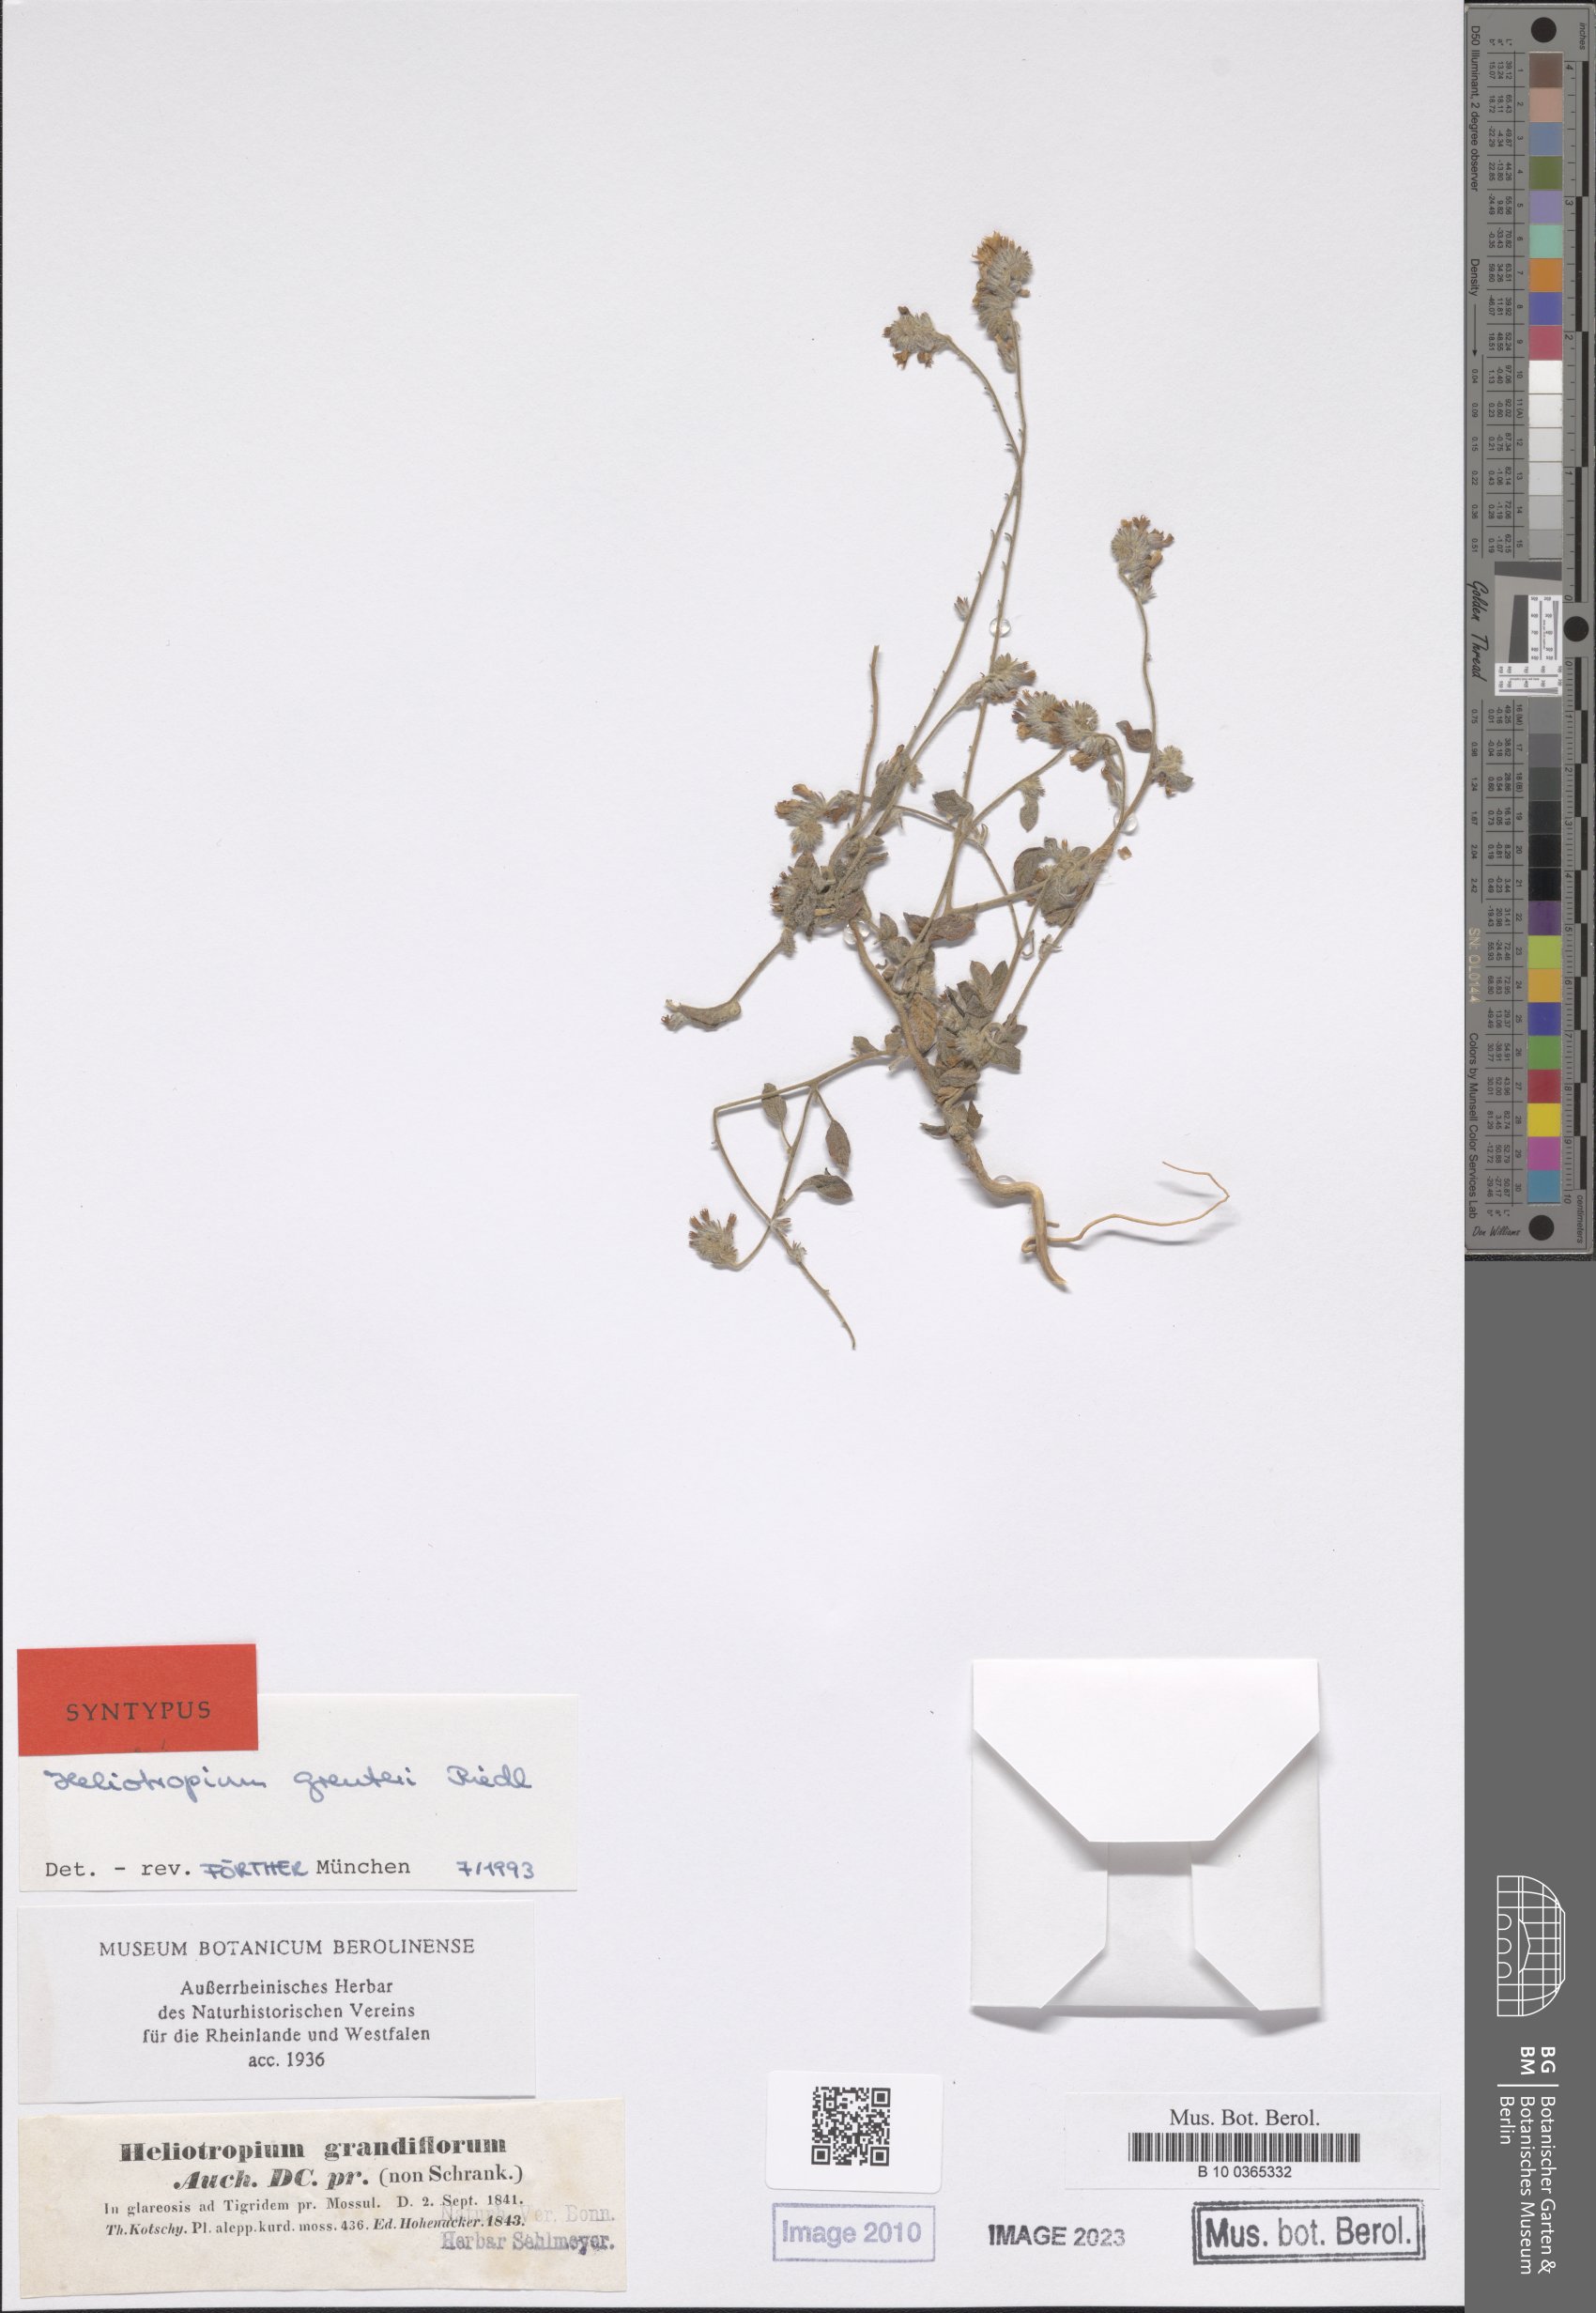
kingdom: Plantae
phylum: Tracheophyta
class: Magnoliopsida
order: Boraginales
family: Heliotropiaceae
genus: Heliotropium
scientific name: Heliotropium greuteri
